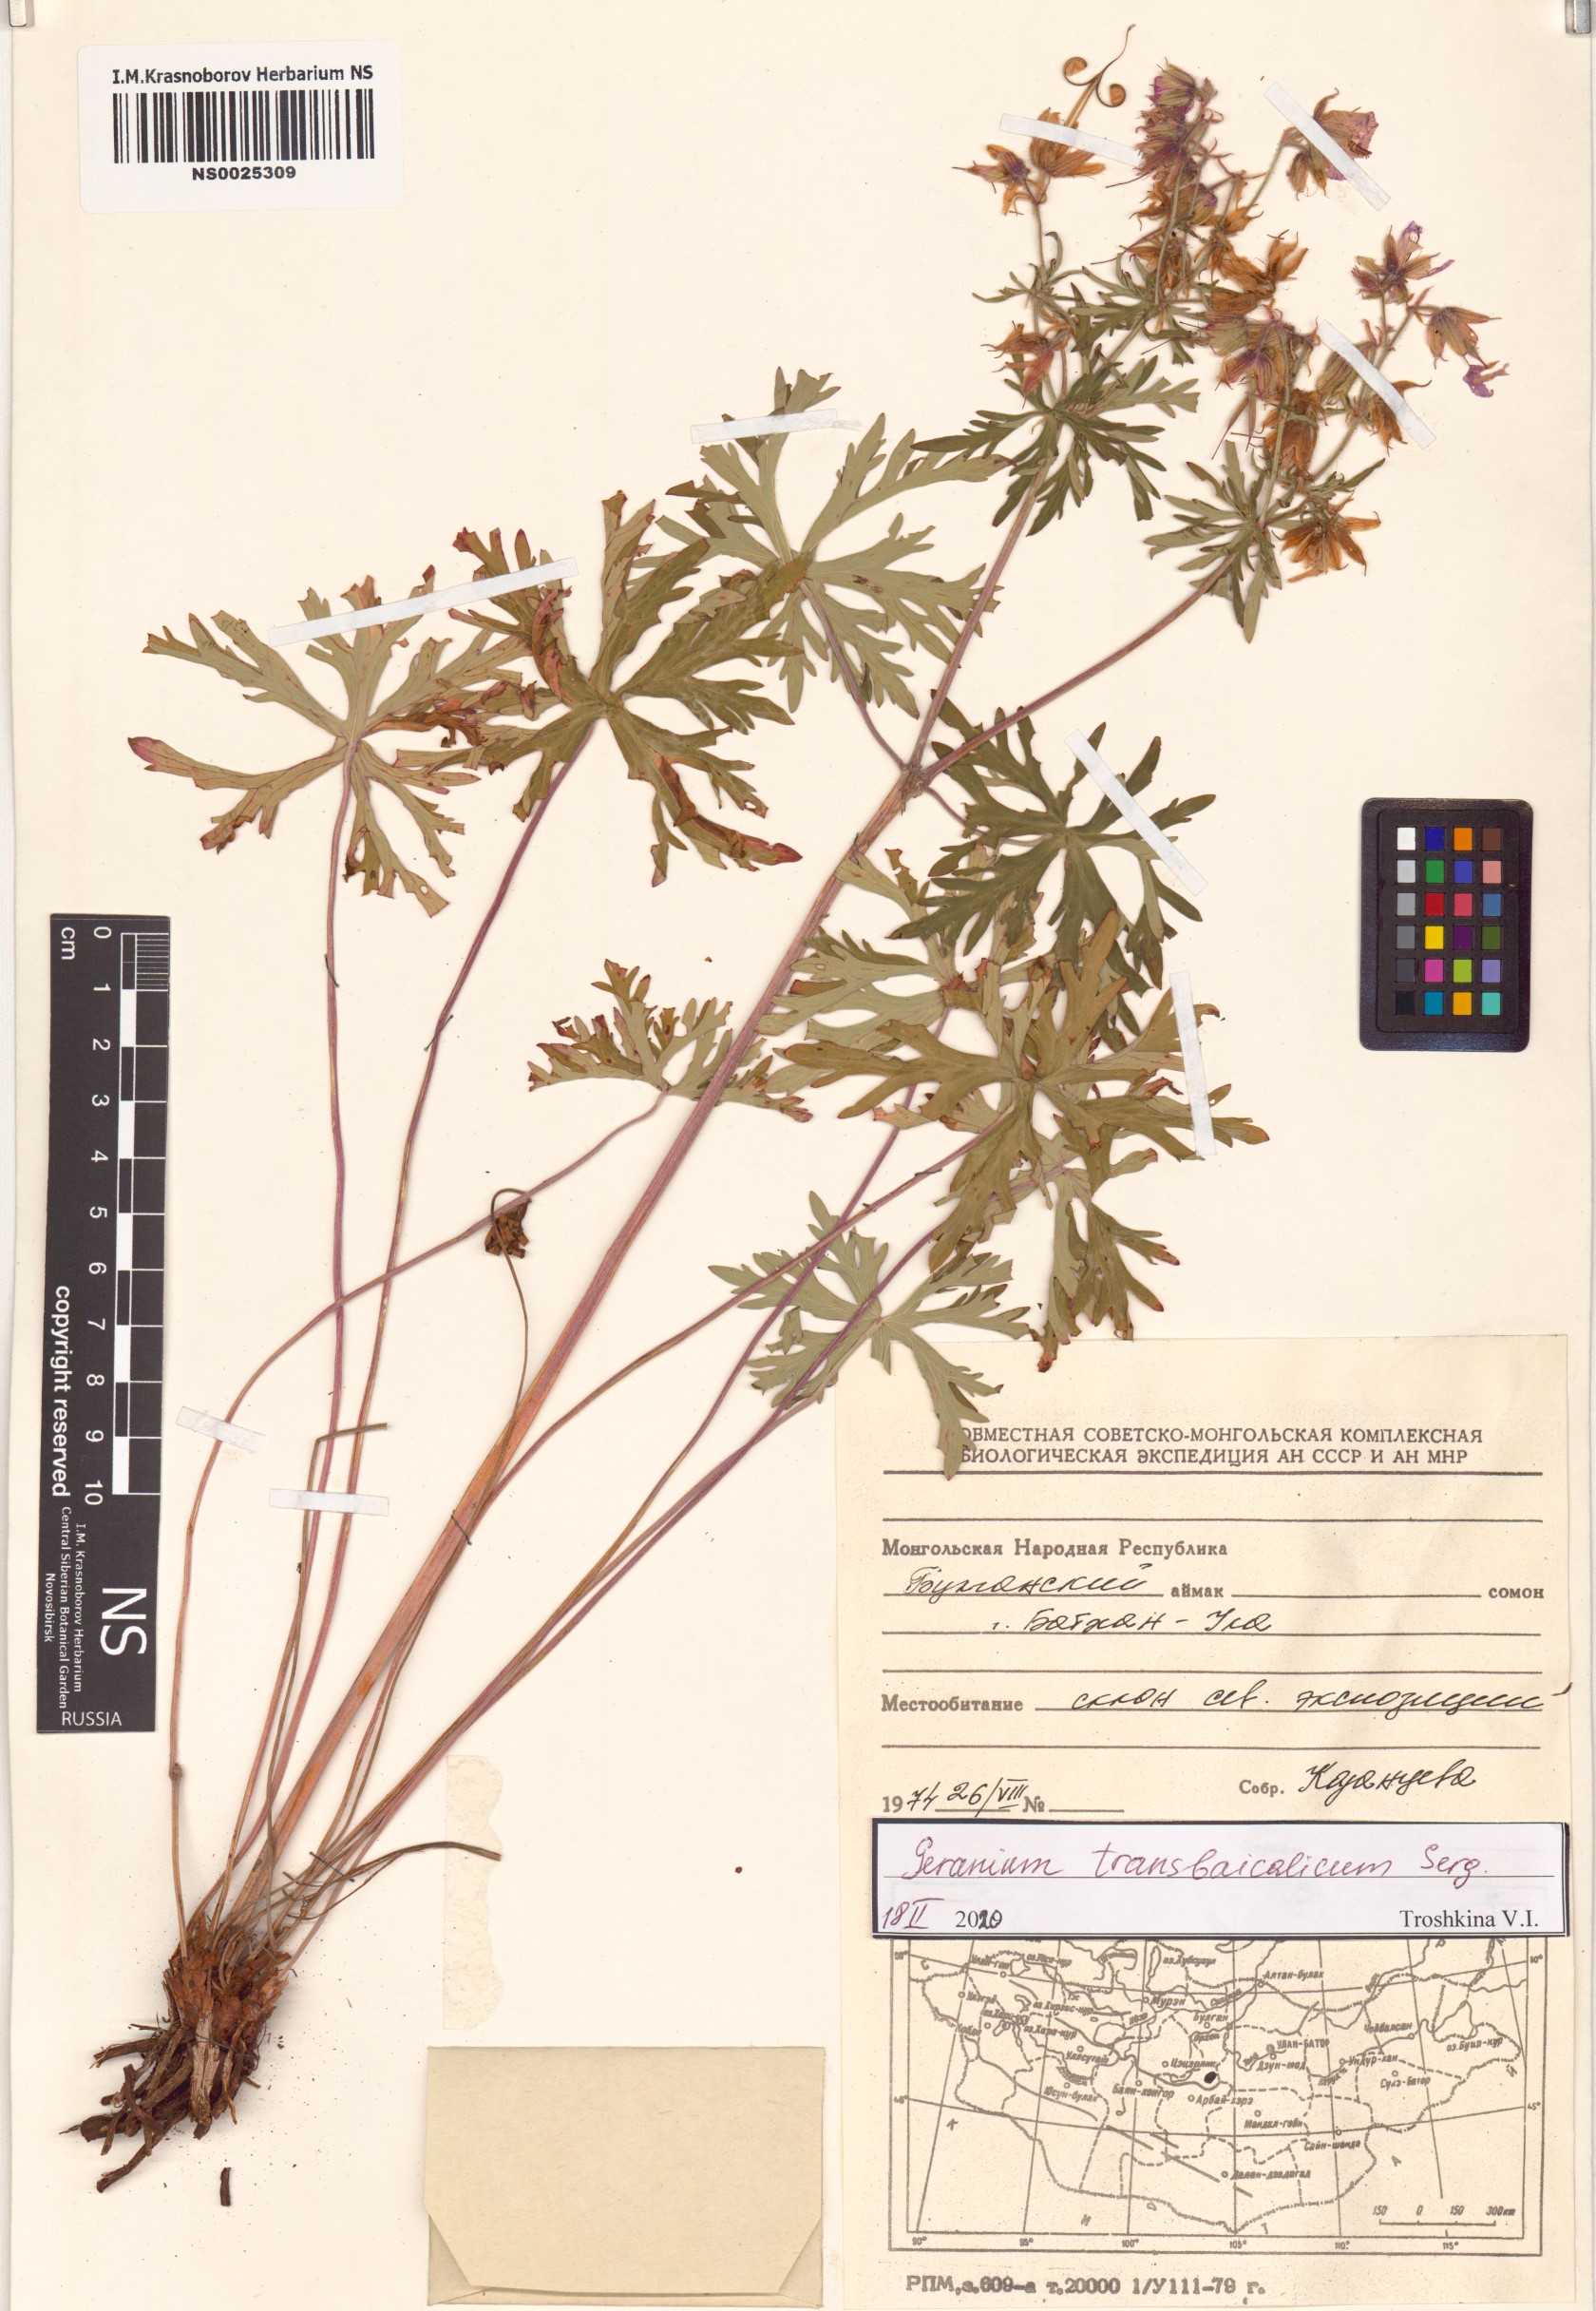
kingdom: Plantae
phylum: Tracheophyta
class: Magnoliopsida
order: Geraniales
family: Geraniaceae
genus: Geranium
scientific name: Geranium pratense
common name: Meadow crane's-bill
